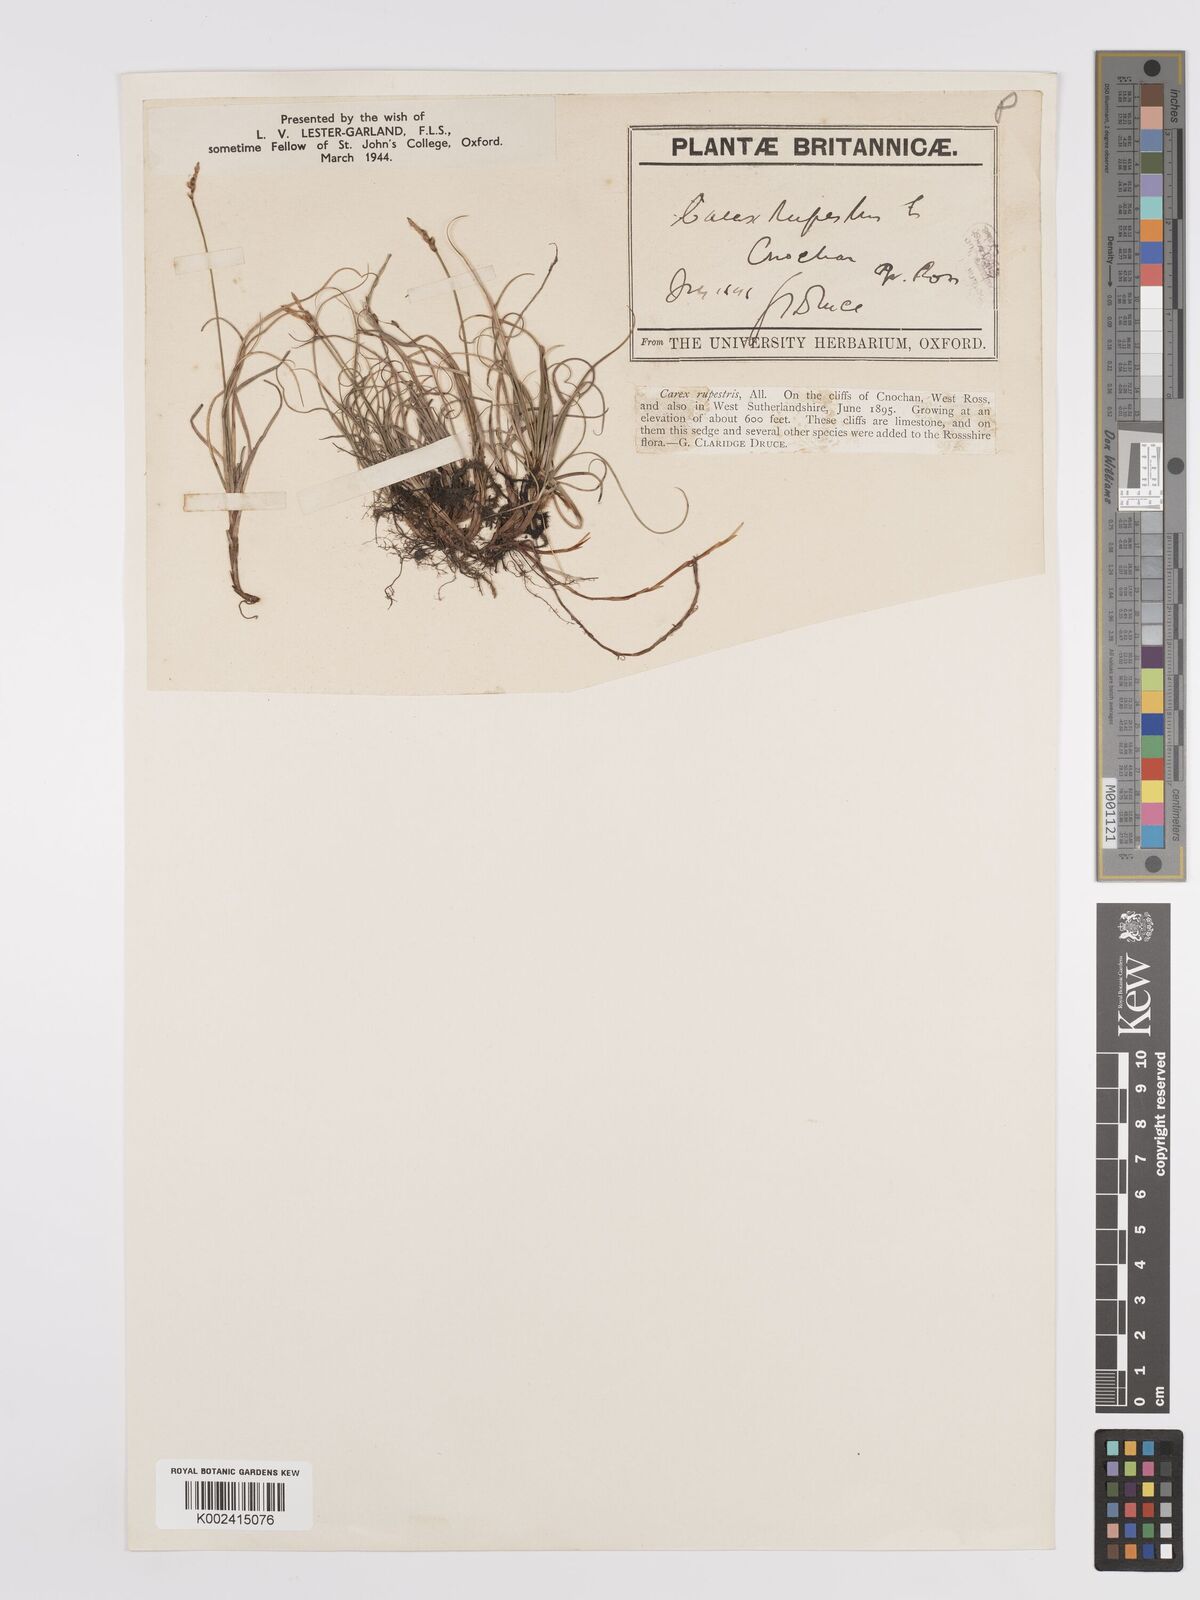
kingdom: Plantae
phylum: Tracheophyta
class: Liliopsida
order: Poales
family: Cyperaceae
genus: Carex
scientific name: Carex rupestris
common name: Rock sedge
